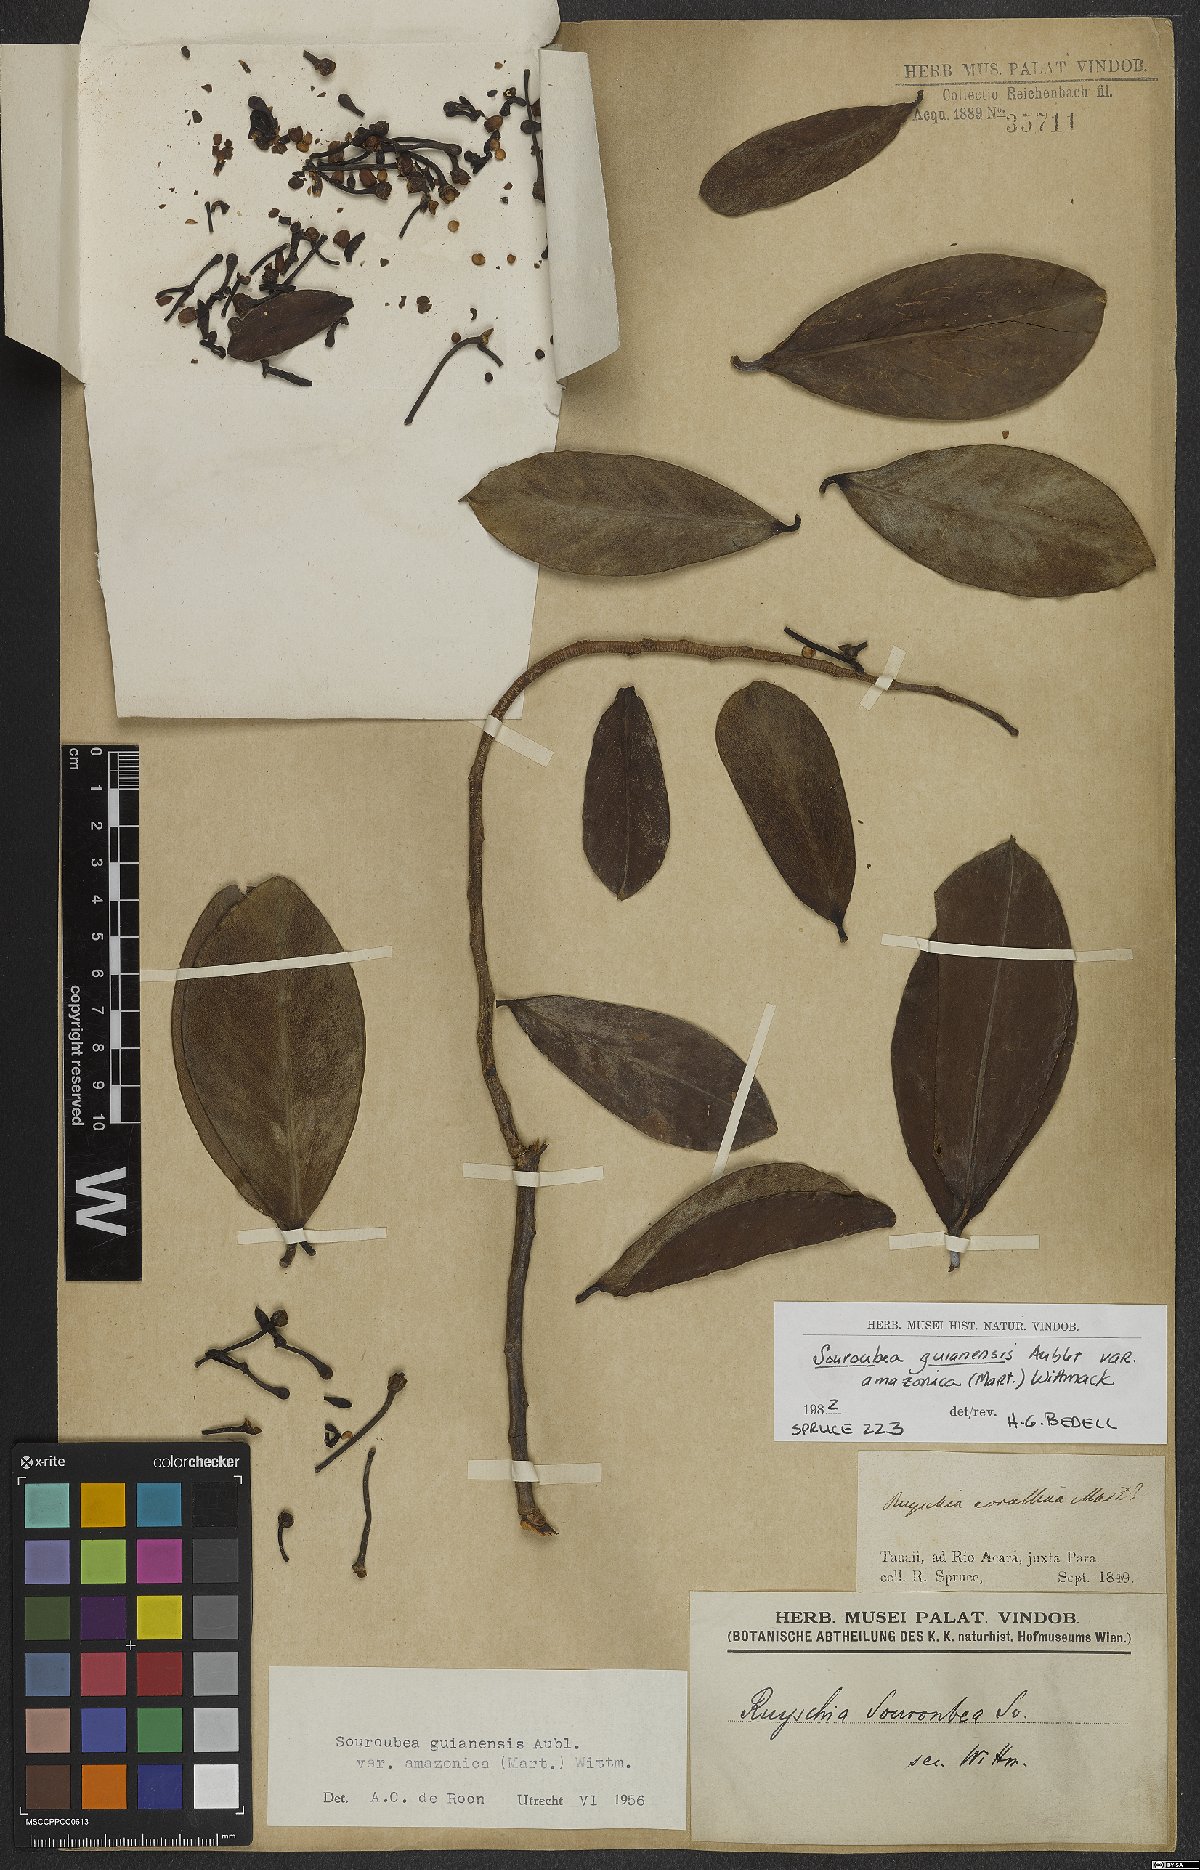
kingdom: Plantae
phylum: Tracheophyta
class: Magnoliopsida
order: Ericales
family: Marcgraviaceae
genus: Souroubea
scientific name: Souroubea guianensis
